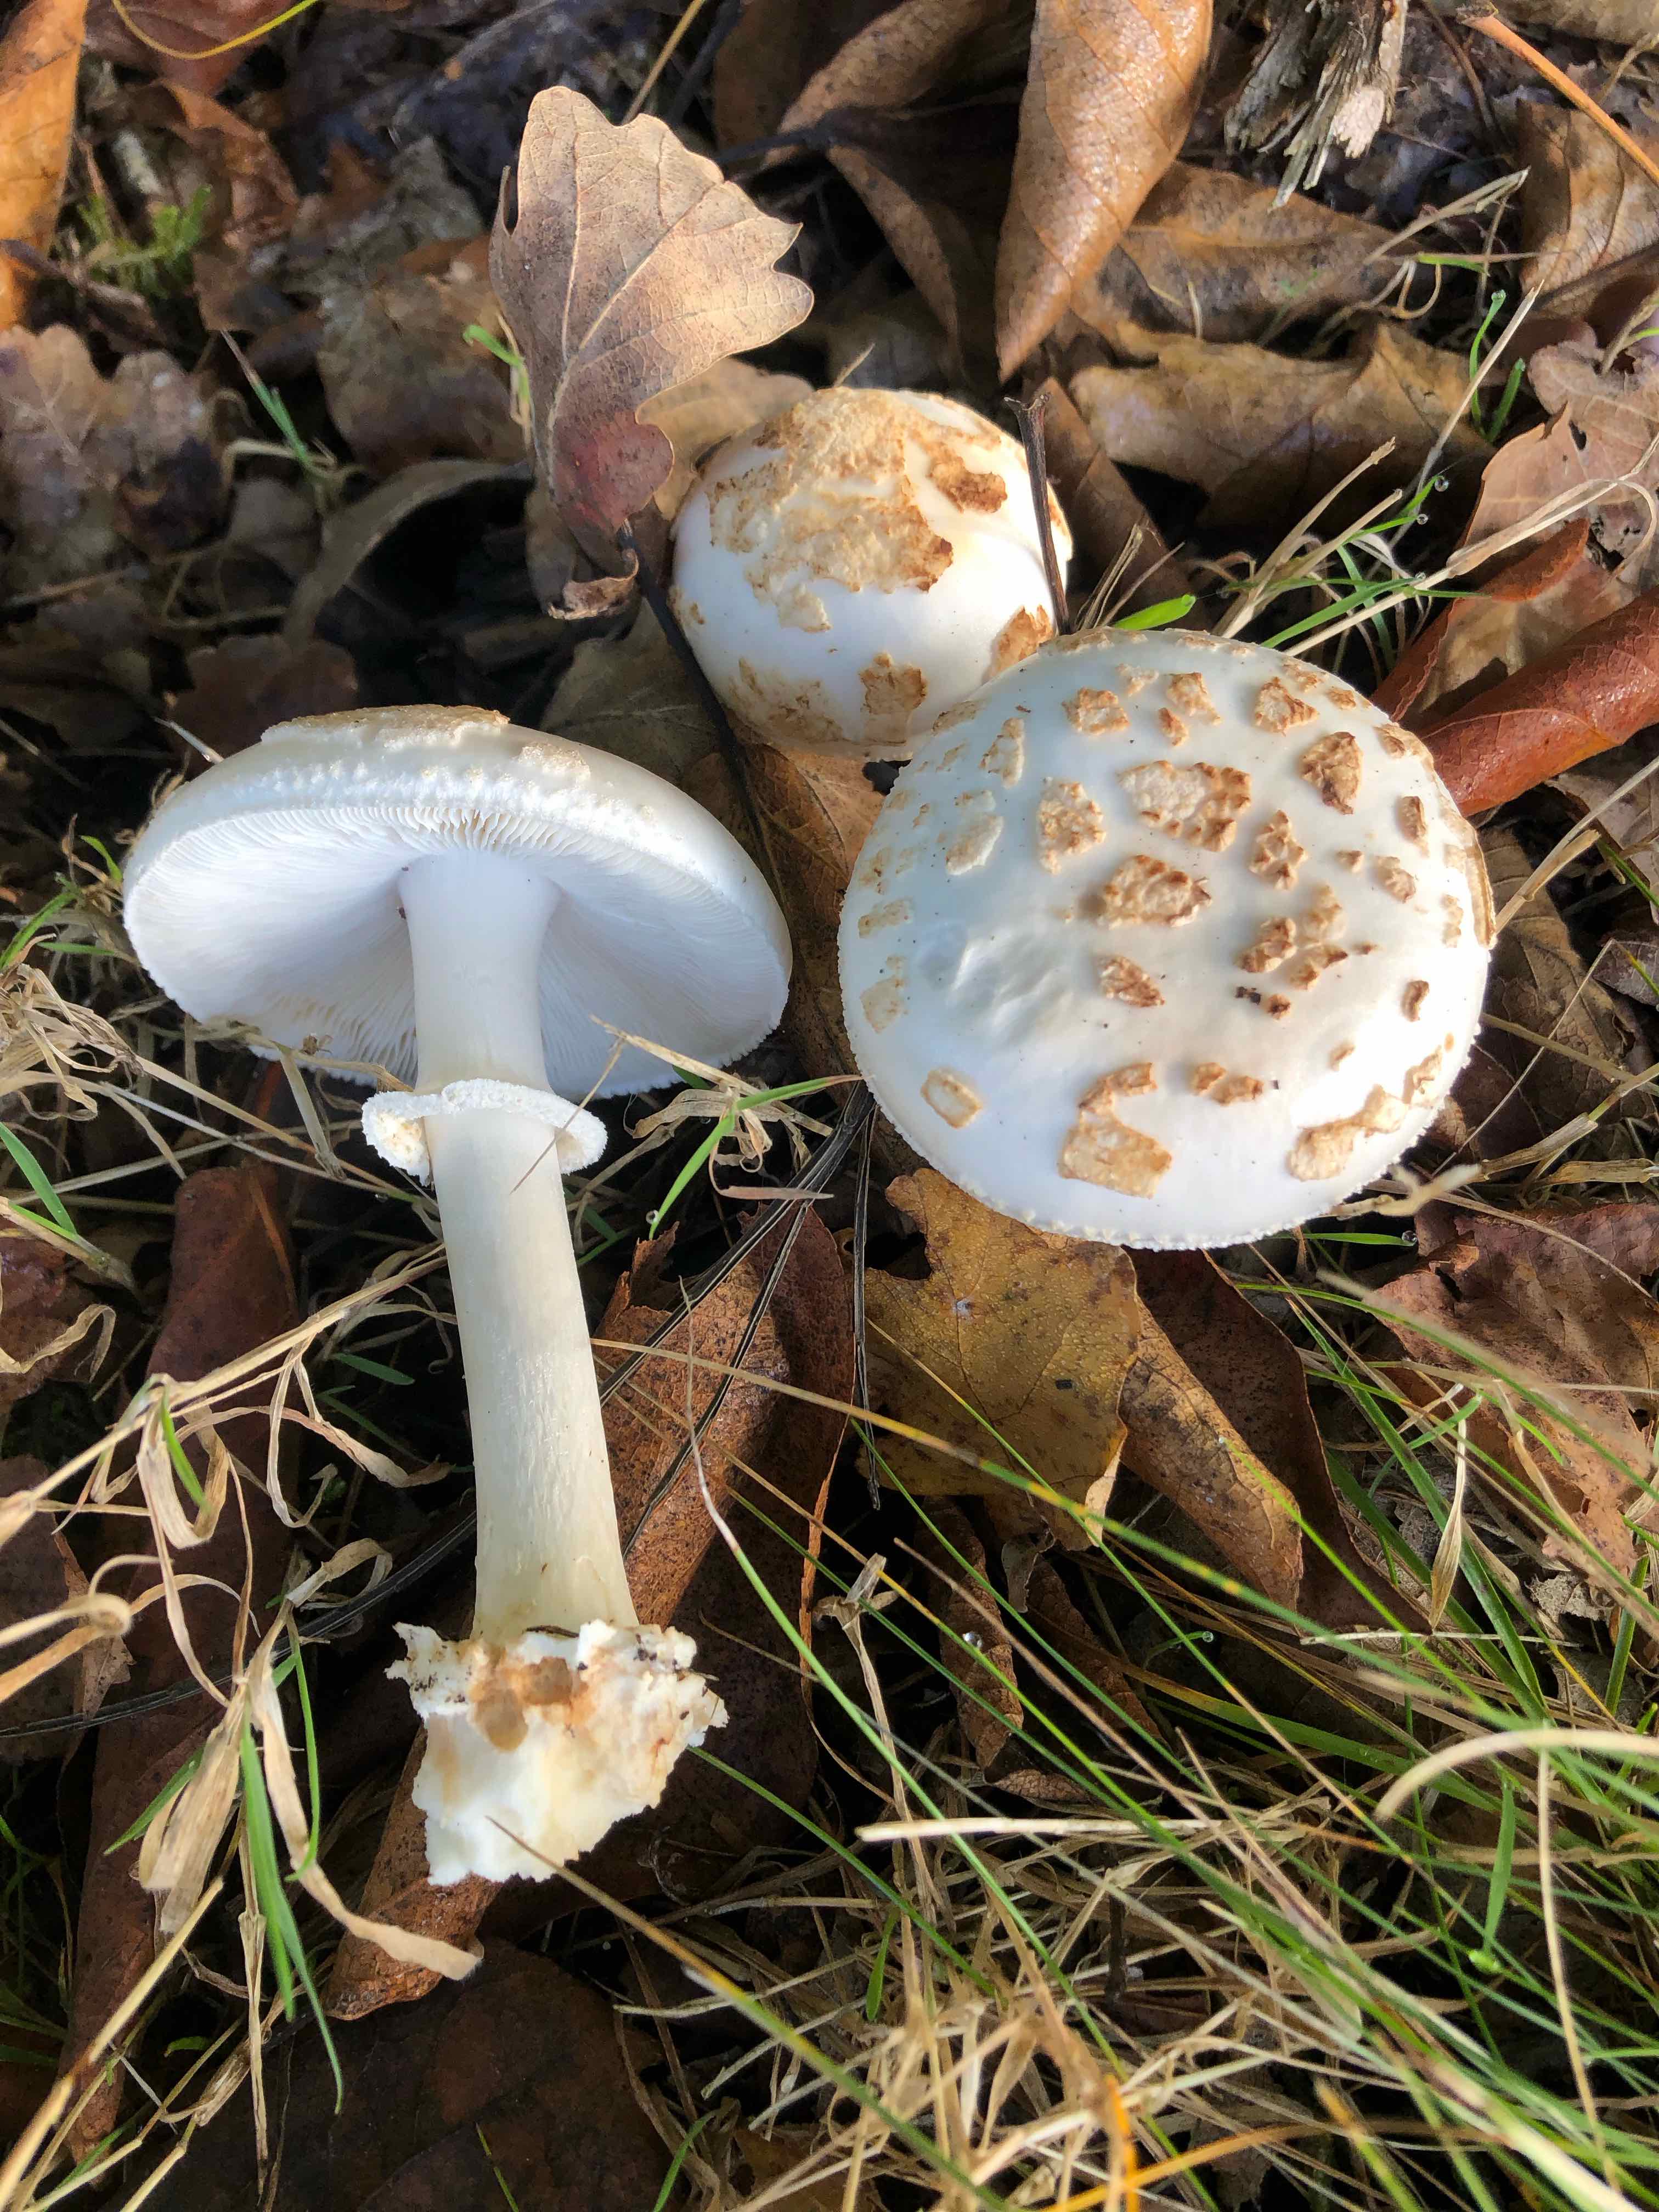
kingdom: Fungi
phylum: Basidiomycota
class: Agaricomycetes
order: Agaricales
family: Amanitaceae
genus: Amanita
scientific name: Amanita citrina
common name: False death-cap
